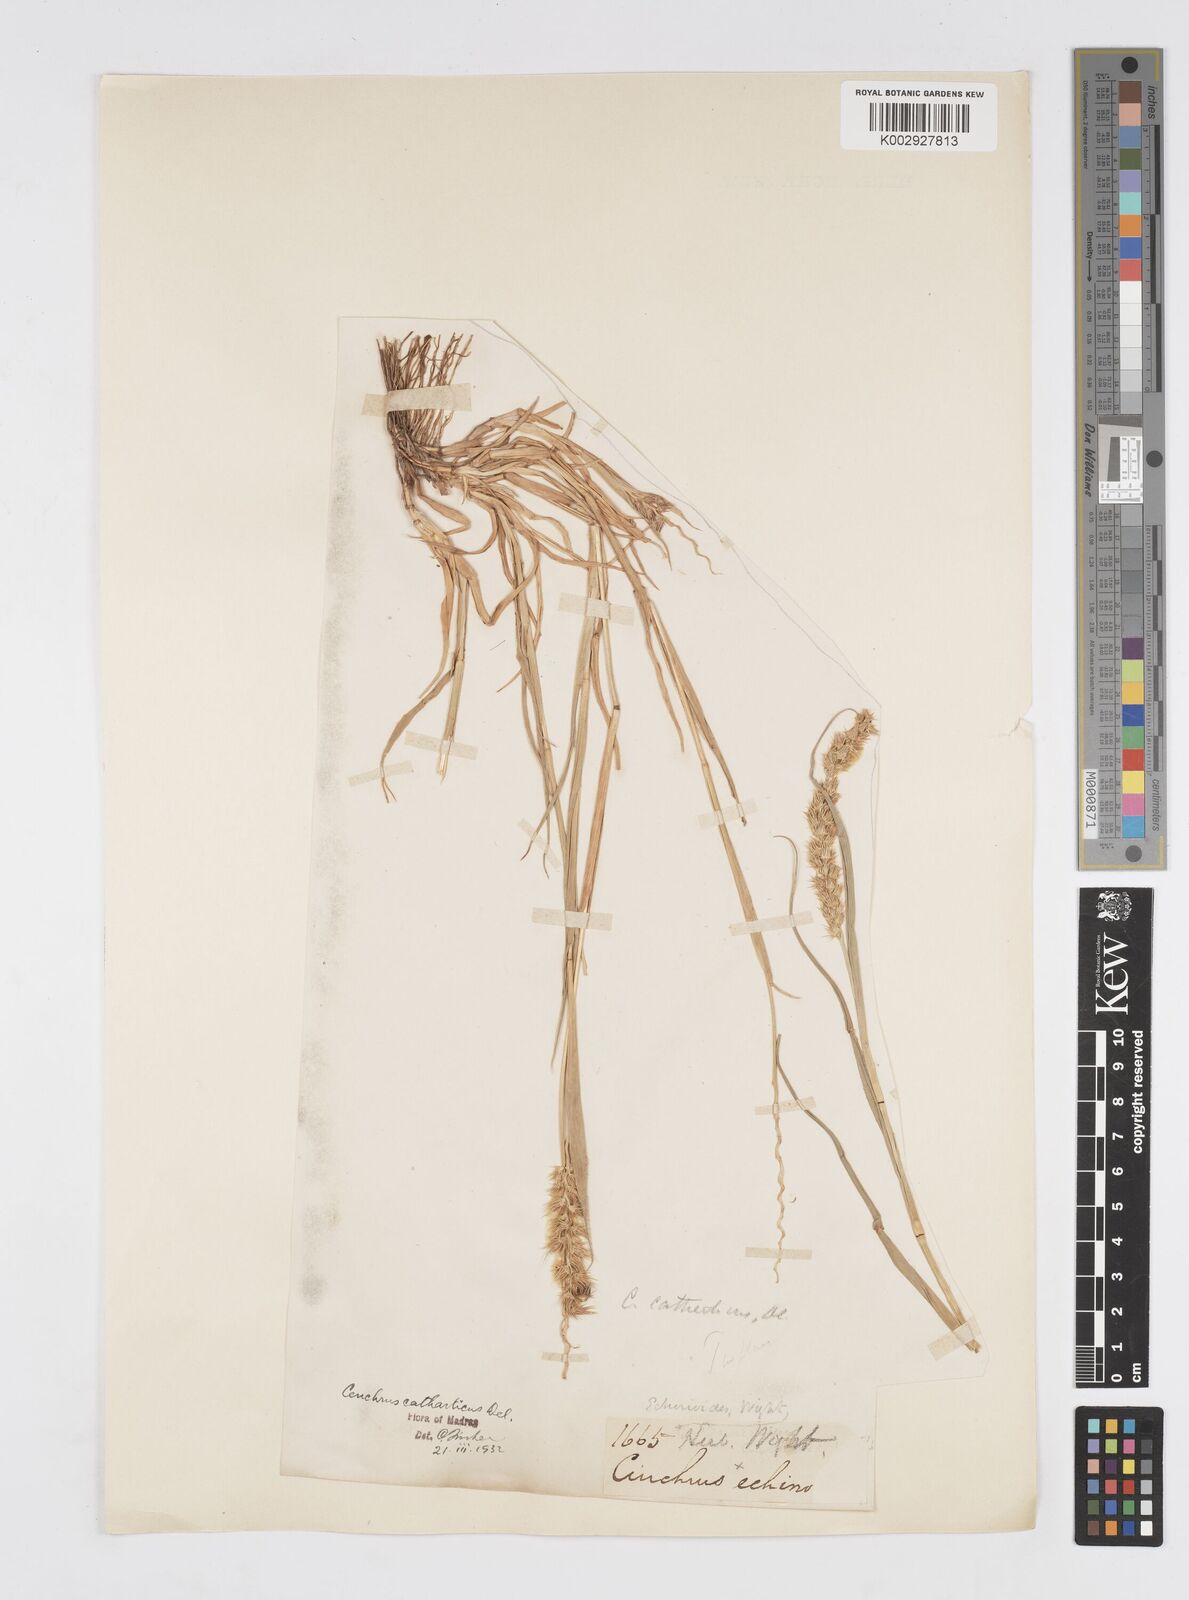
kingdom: Plantae
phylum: Tracheophyta
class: Liliopsida
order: Poales
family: Poaceae
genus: Cenchrus
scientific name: Cenchrus biflorus
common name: Indian sandbur
